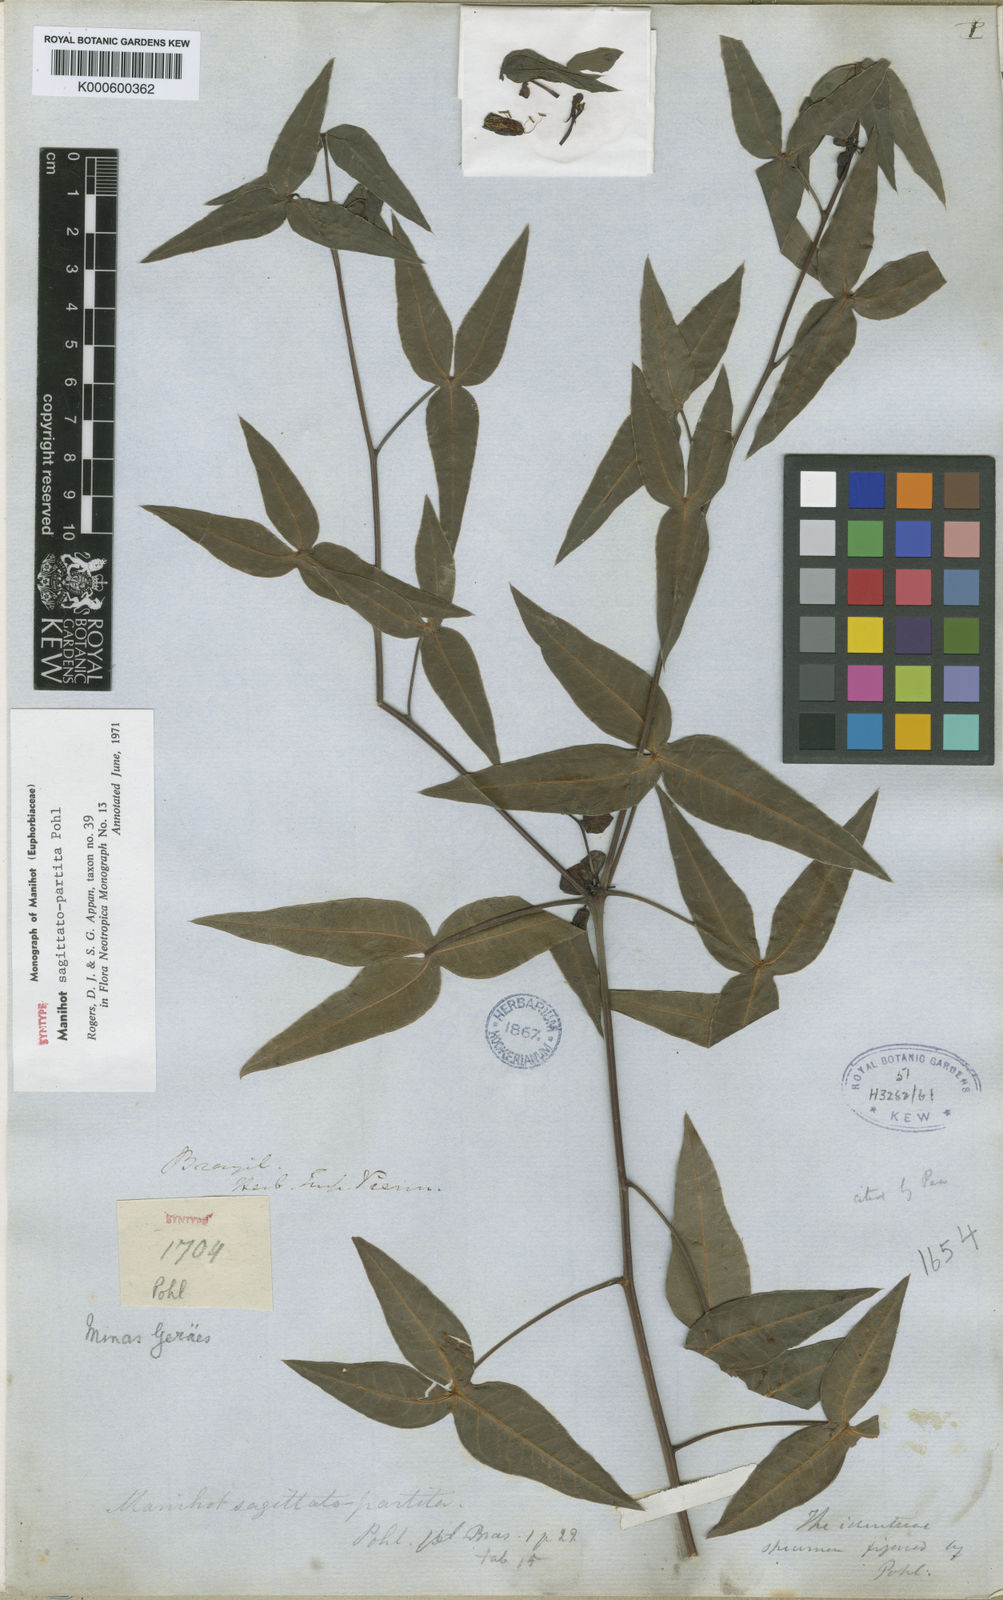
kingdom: Plantae
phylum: Tracheophyta
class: Magnoliopsida
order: Malpighiales
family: Euphorbiaceae
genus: Manihot
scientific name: Manihot sagittatopartita
